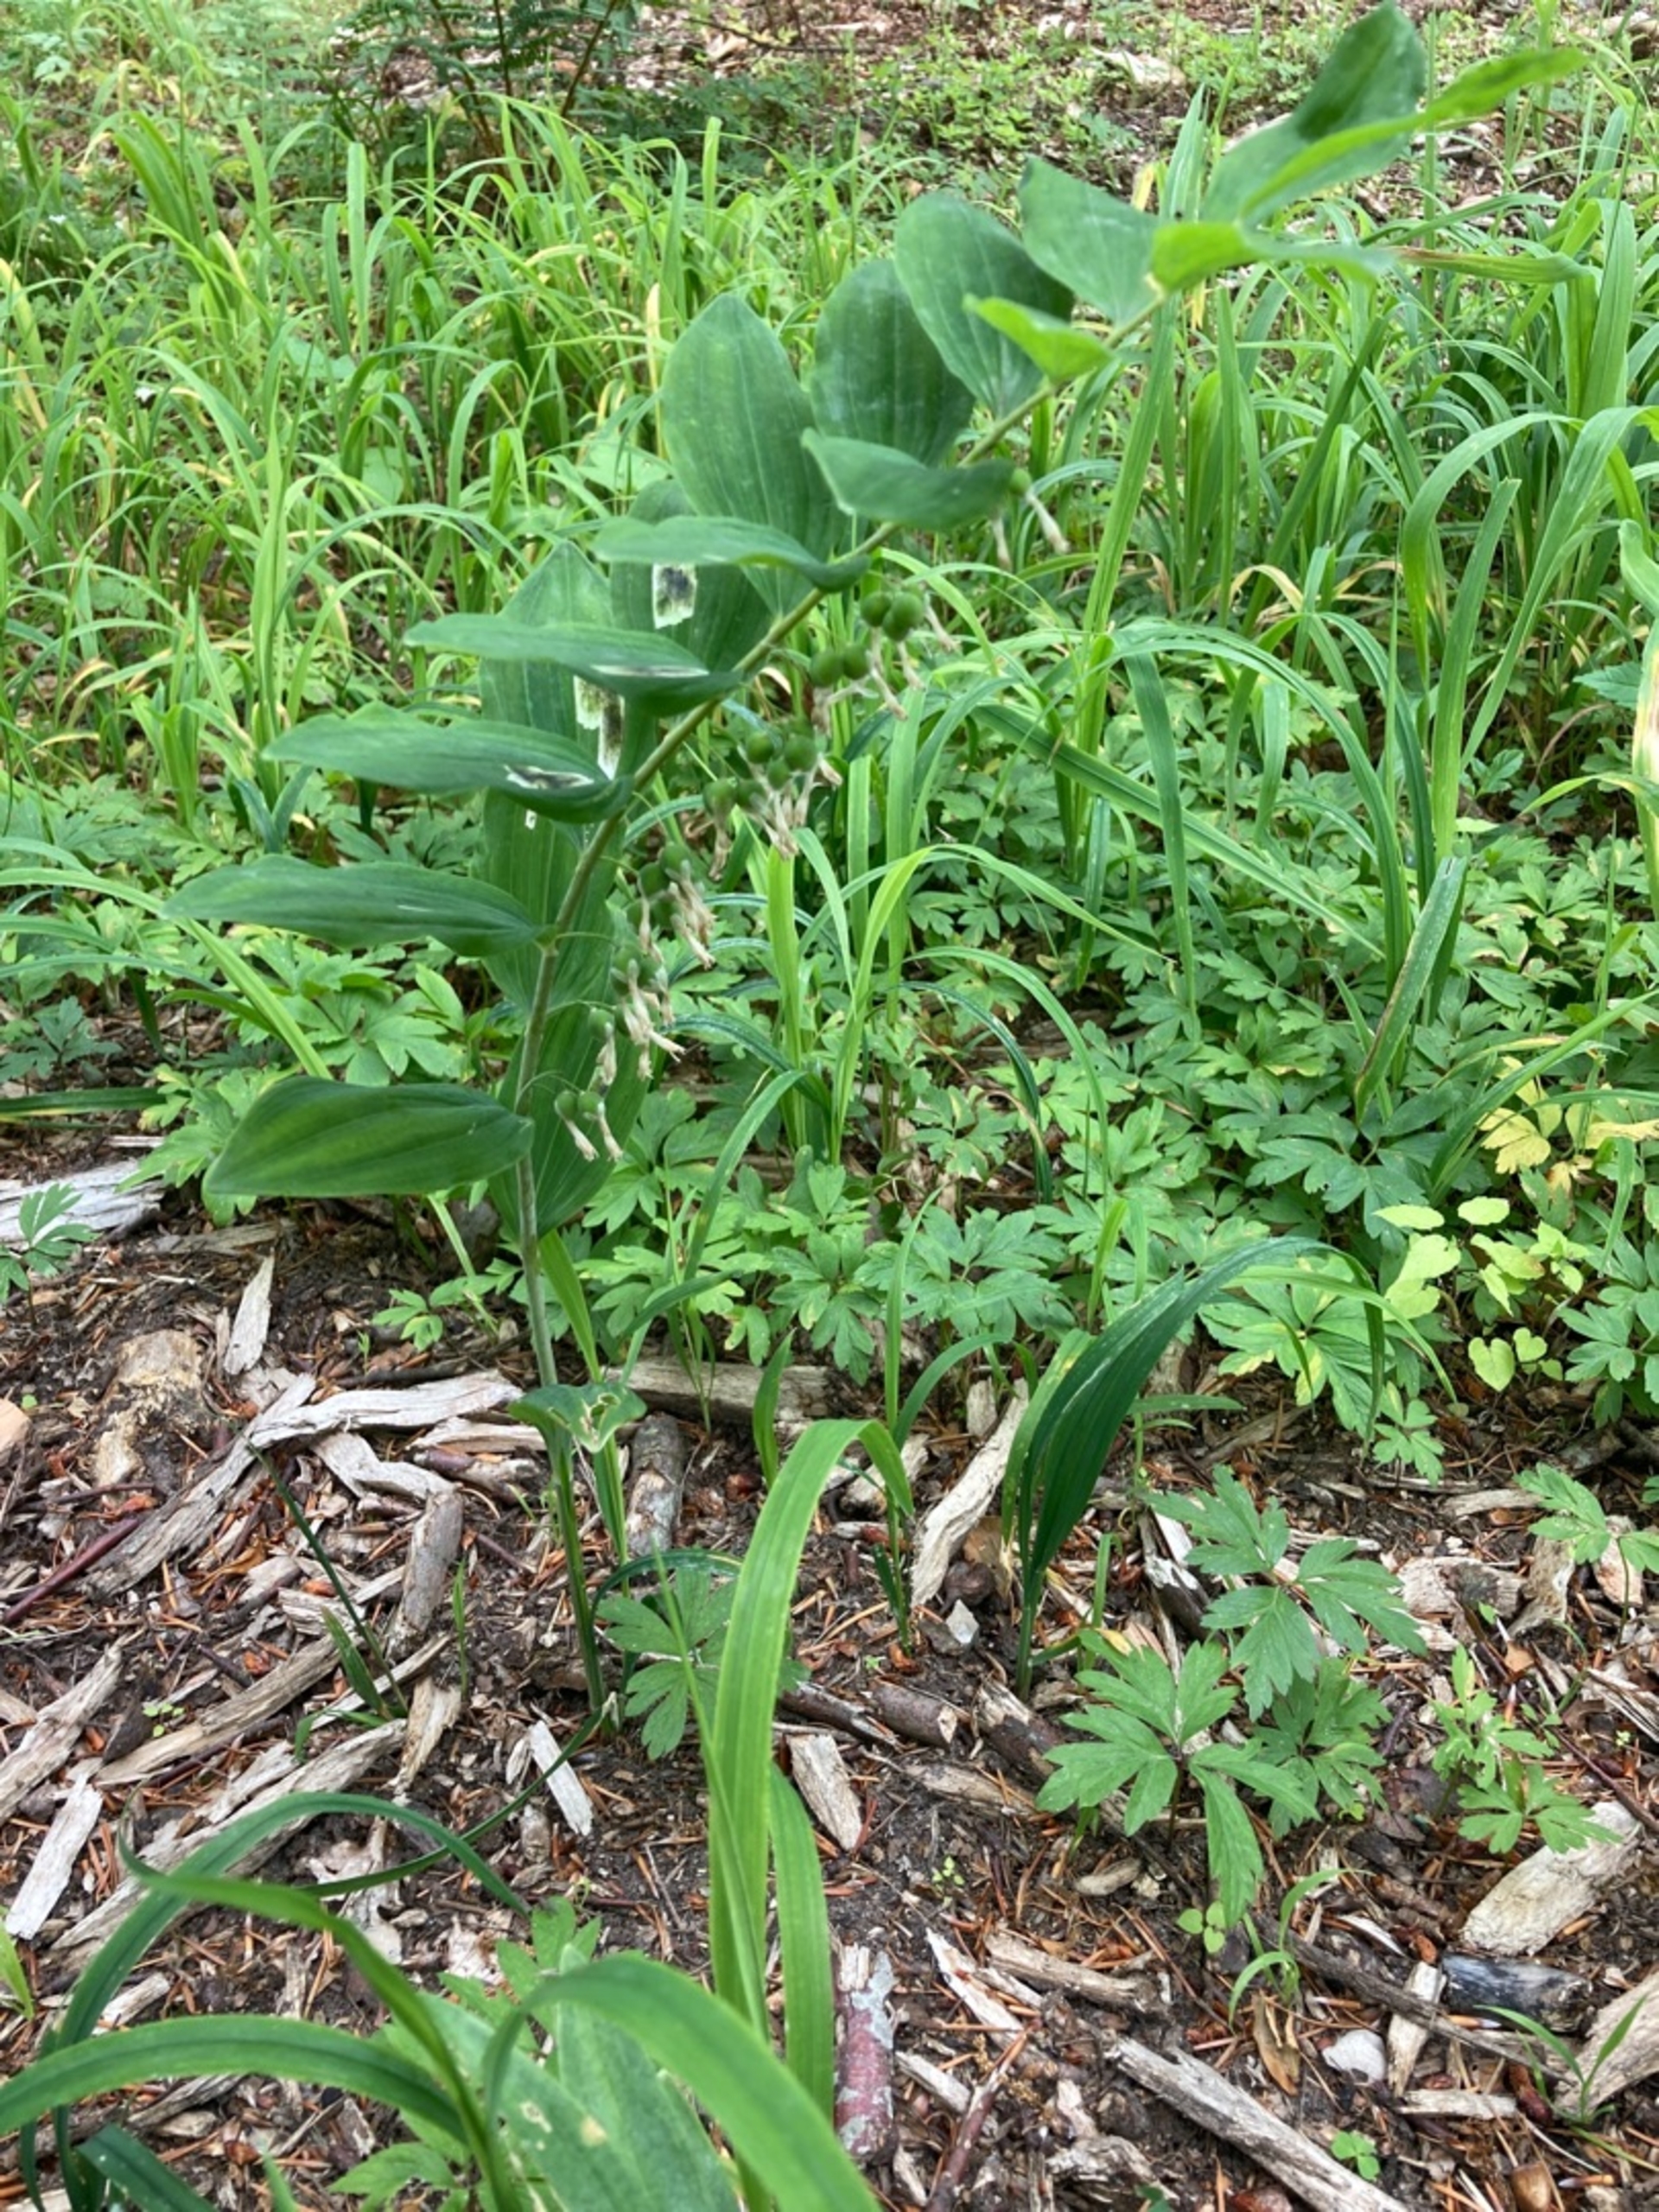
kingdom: Plantae
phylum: Tracheophyta
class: Liliopsida
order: Asparagales
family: Asparagaceae
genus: Polygonatum
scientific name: Polygonatum
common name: Hybrid-konval
